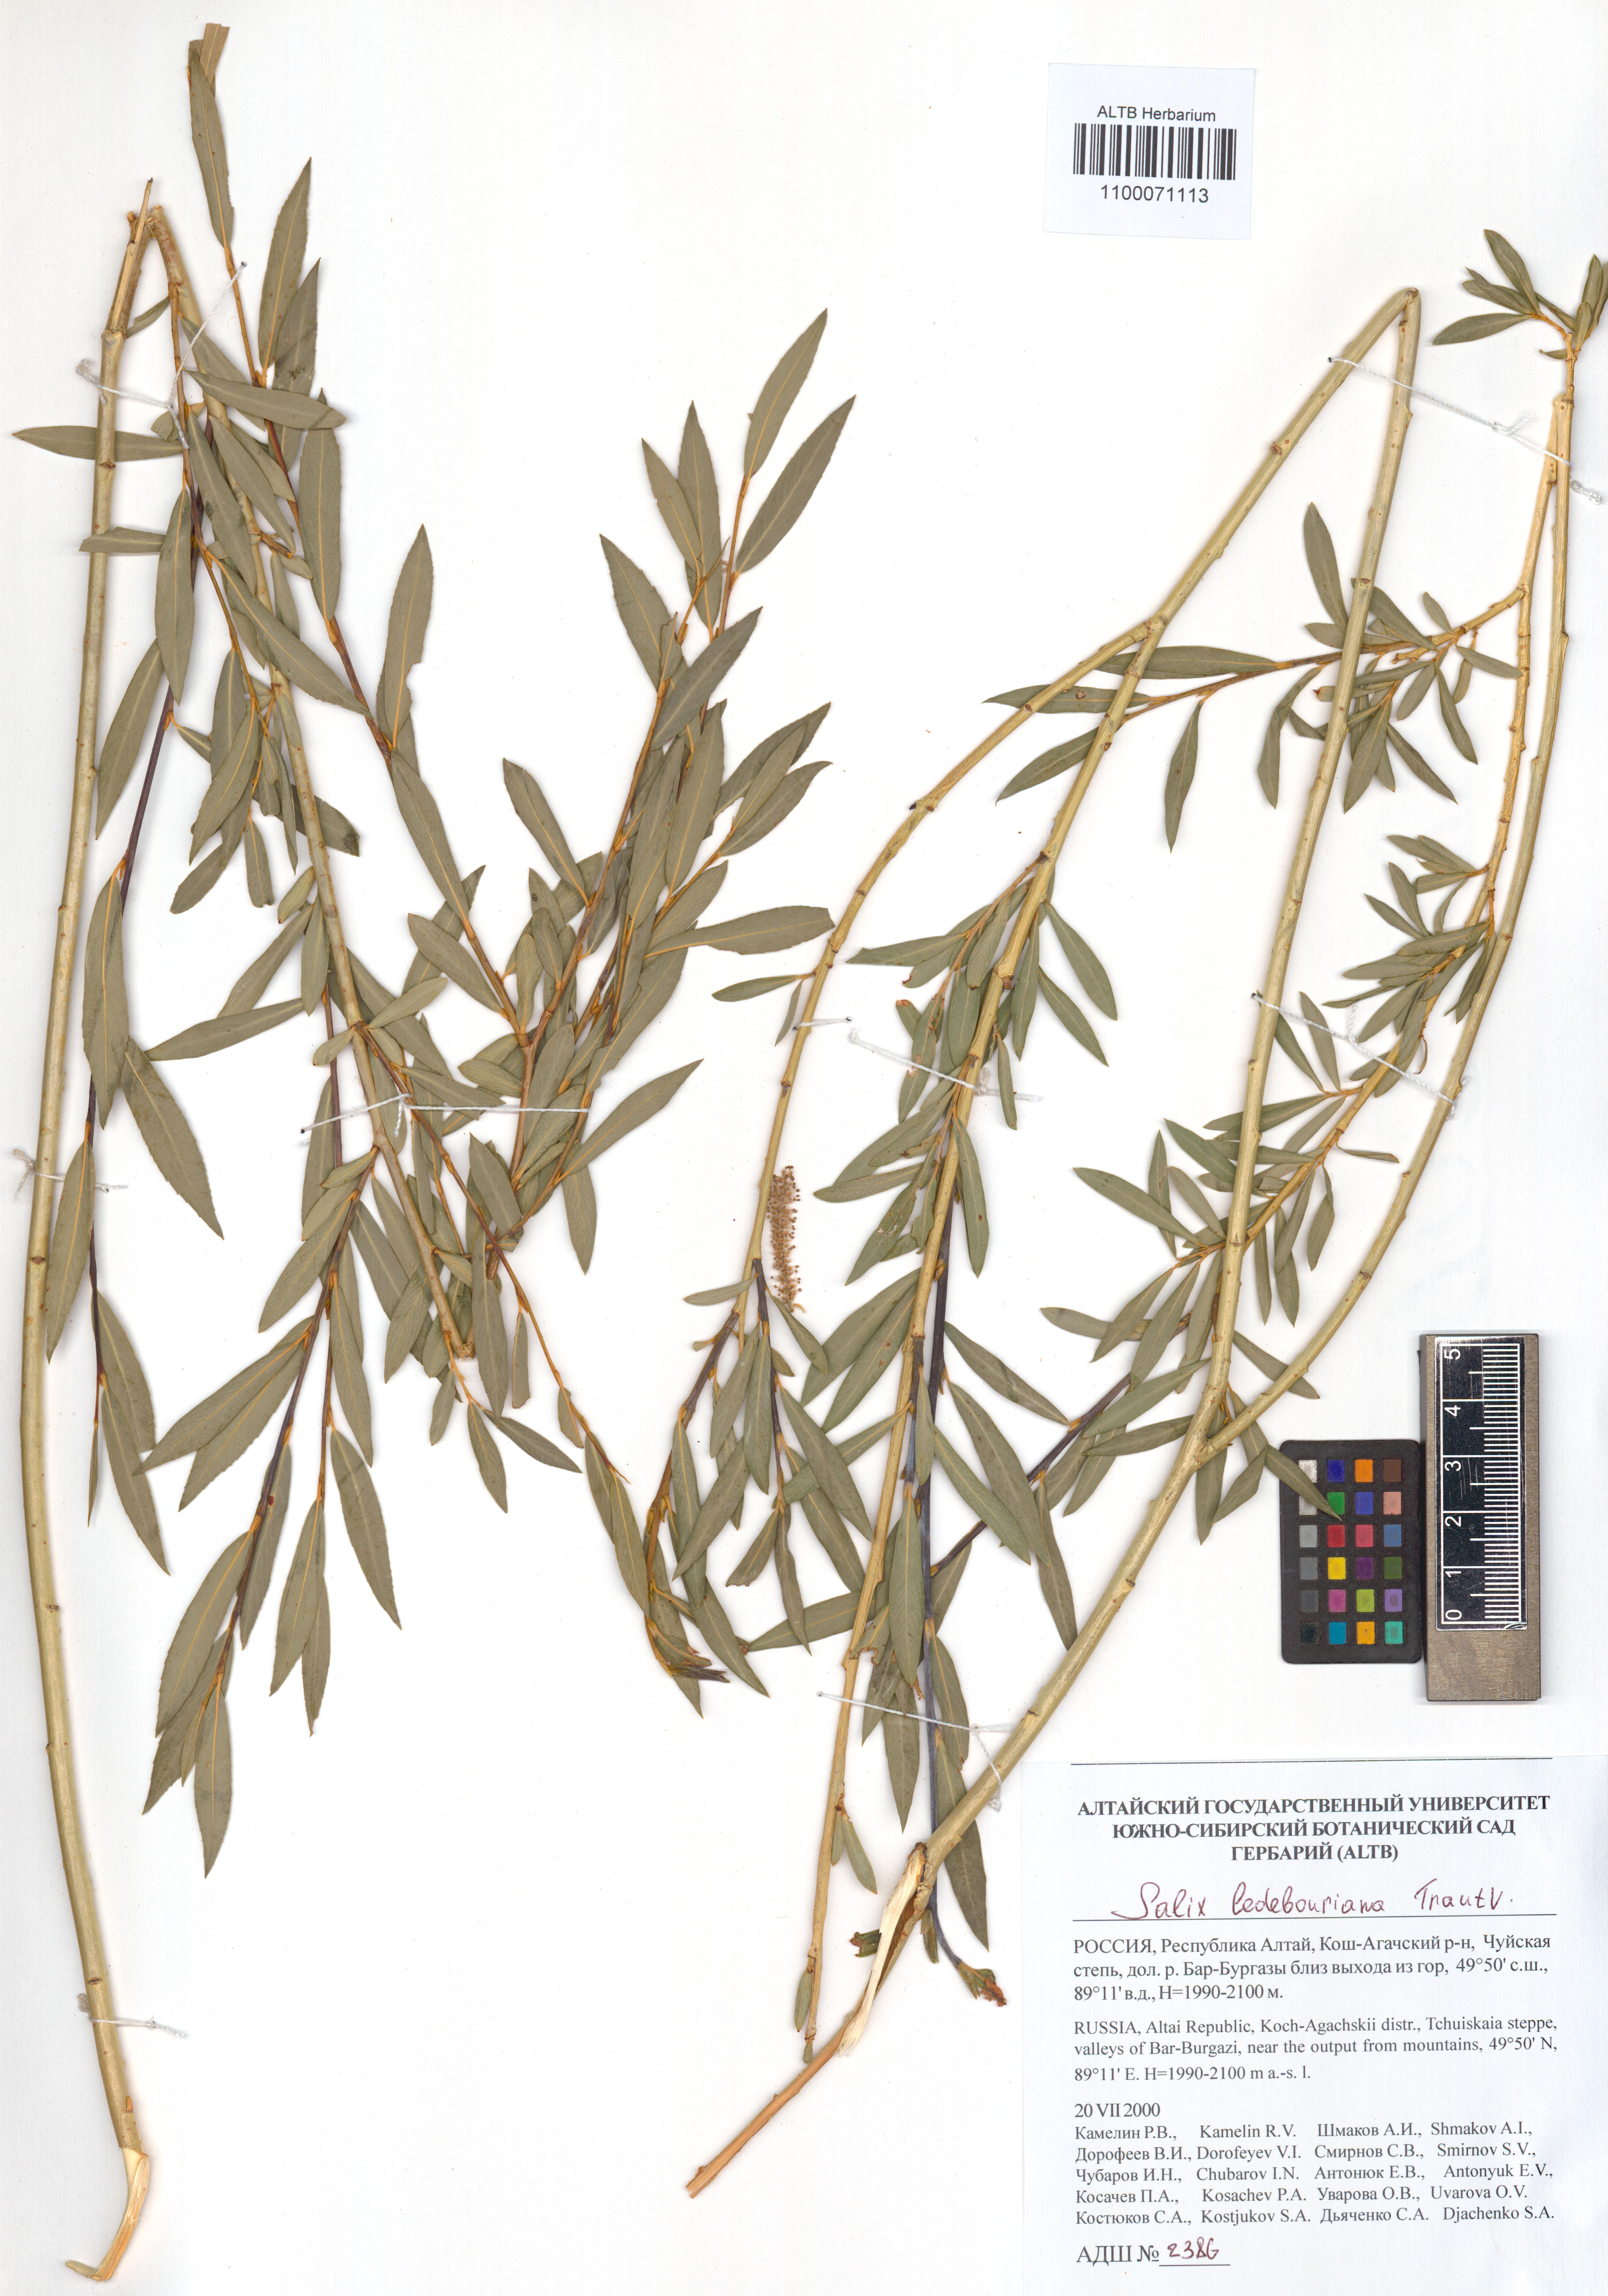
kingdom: Plantae
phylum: Tracheophyta
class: Magnoliopsida
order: Malpighiales
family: Salicaceae
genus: Salix
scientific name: Salix ledebouriana
